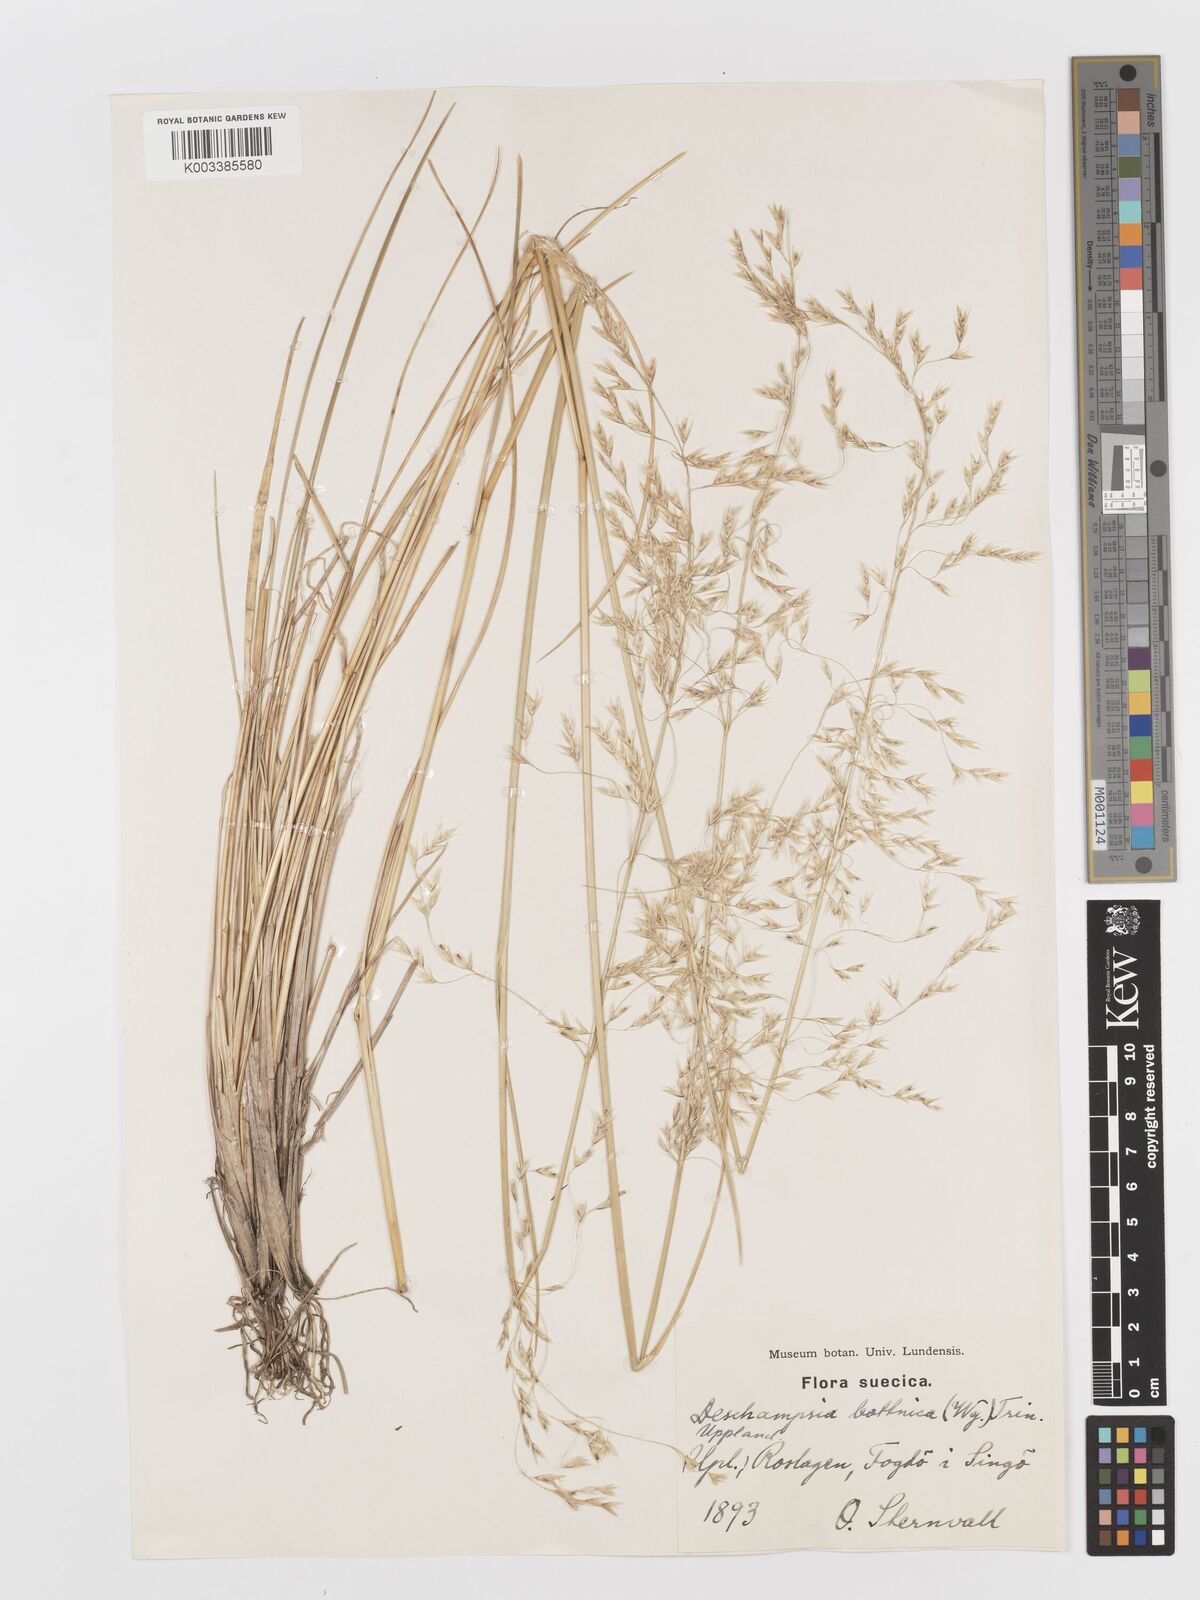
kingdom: Plantae
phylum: Tracheophyta
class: Liliopsida
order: Poales
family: Poaceae
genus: Deschampsia
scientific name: Deschampsia cespitosa
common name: Tufted hair-grass
